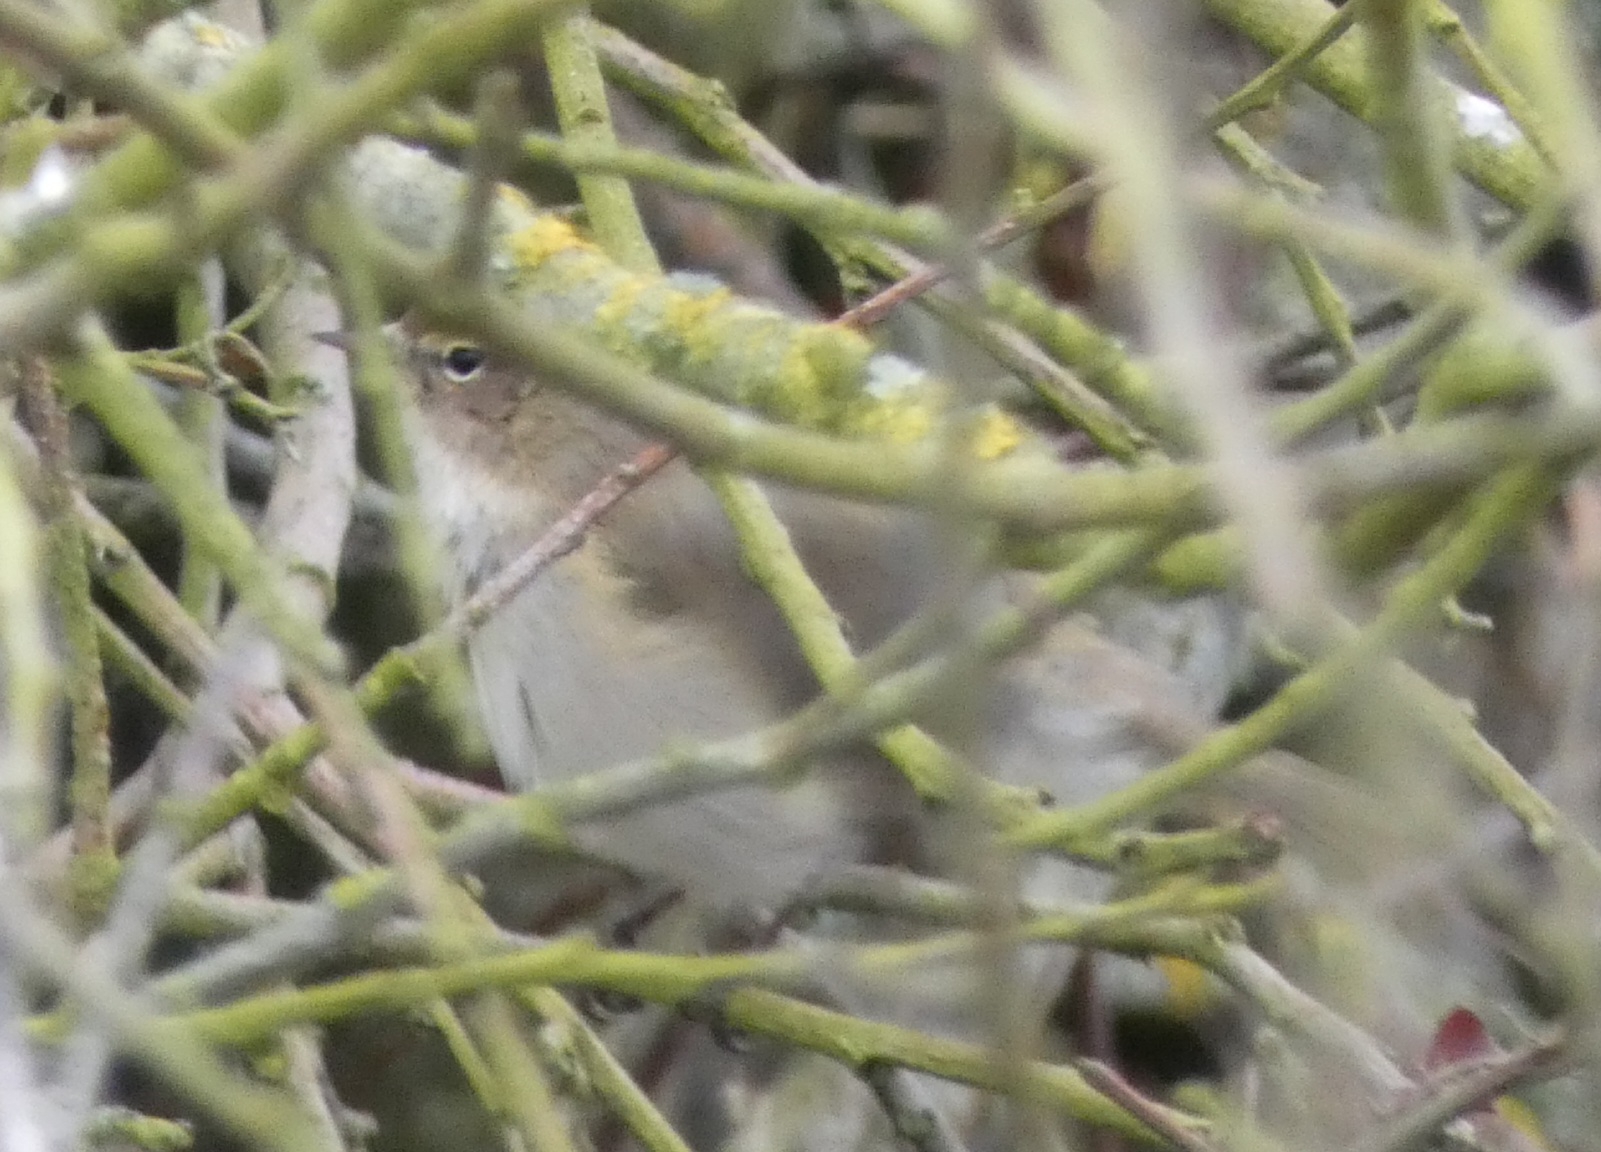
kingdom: Animalia
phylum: Chordata
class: Aves
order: Passeriformes
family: Phylloscopidae
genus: Phylloscopus
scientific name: Phylloscopus collybita
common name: Gransanger
